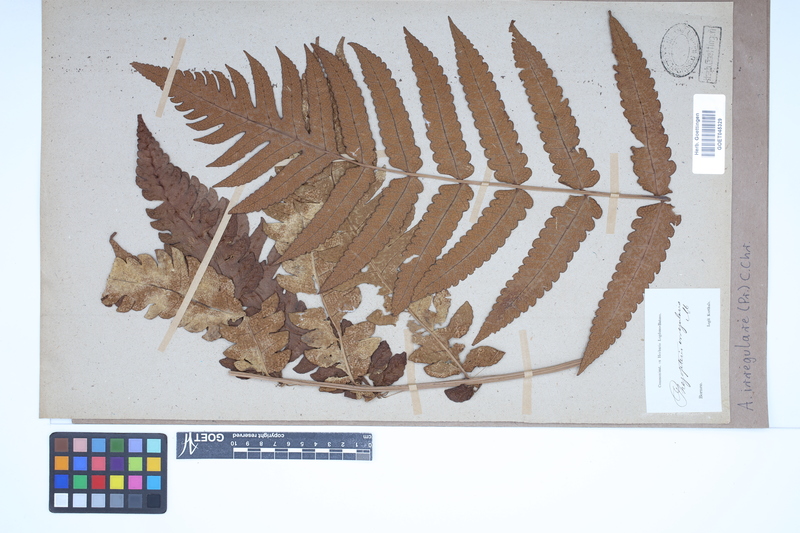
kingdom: Plantae
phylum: Tracheophyta
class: Polypodiopsida
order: Polypodiales
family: Dryopteridaceae
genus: Pleocnemia
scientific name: Pleocnemia irregularis
